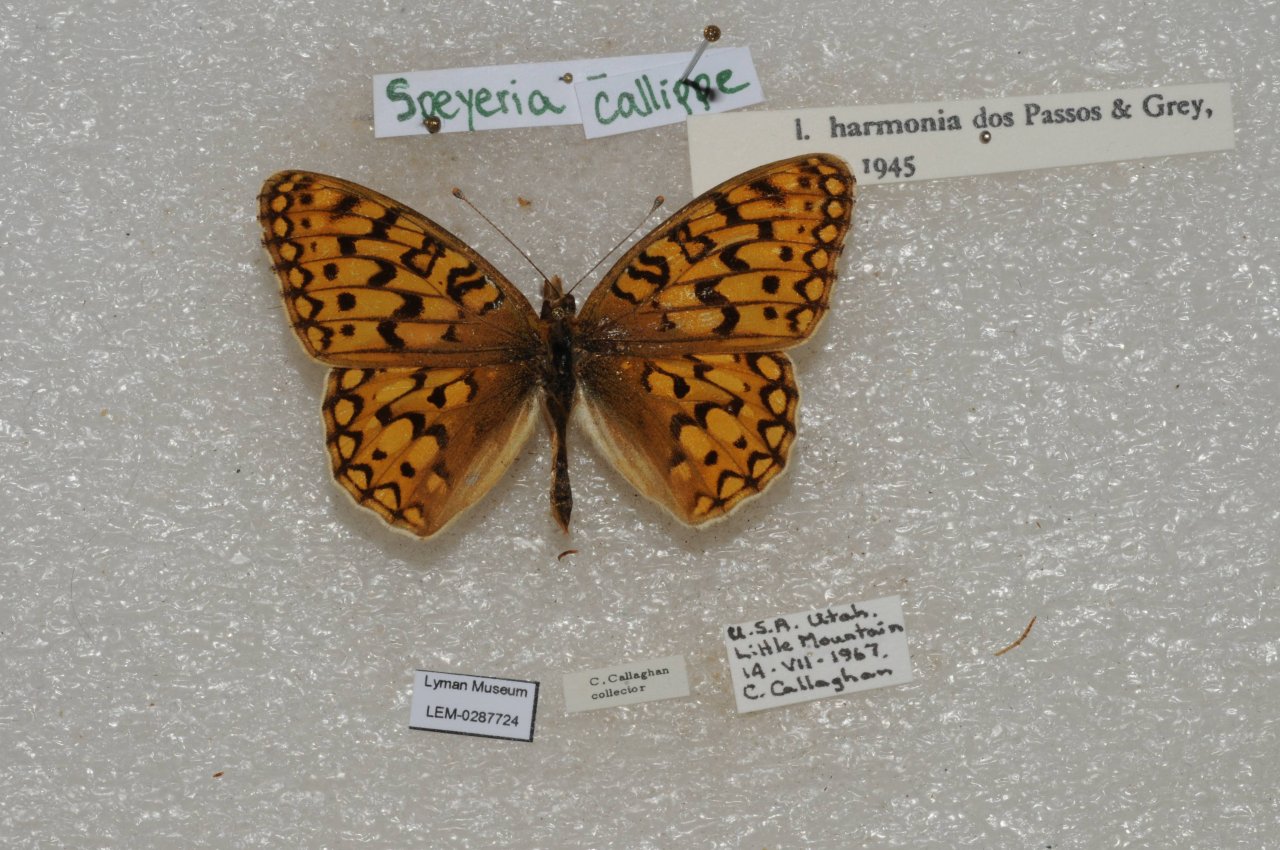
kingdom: Animalia
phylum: Arthropoda
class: Insecta
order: Lepidoptera
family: Nymphalidae
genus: Speyeria
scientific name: Speyeria callippe
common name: Callippe Fritillary
